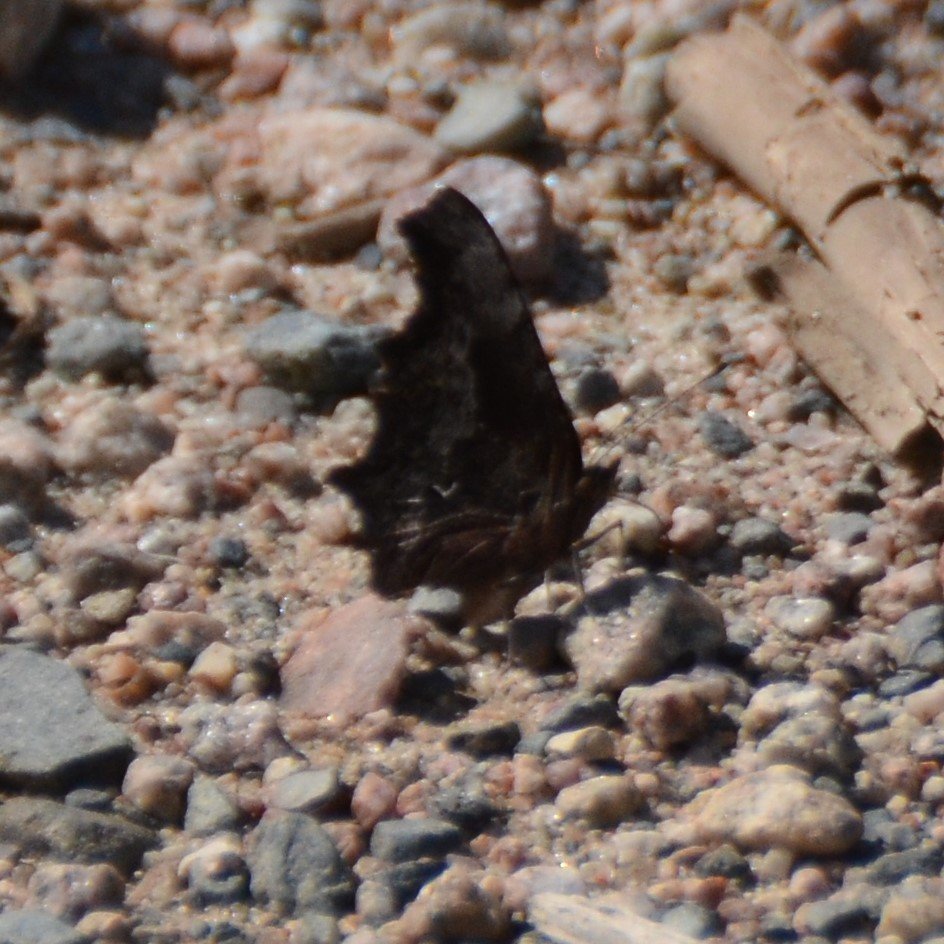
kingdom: Animalia
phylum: Arthropoda
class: Insecta
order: Lepidoptera
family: Nymphalidae
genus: Polygonia
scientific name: Polygonia
